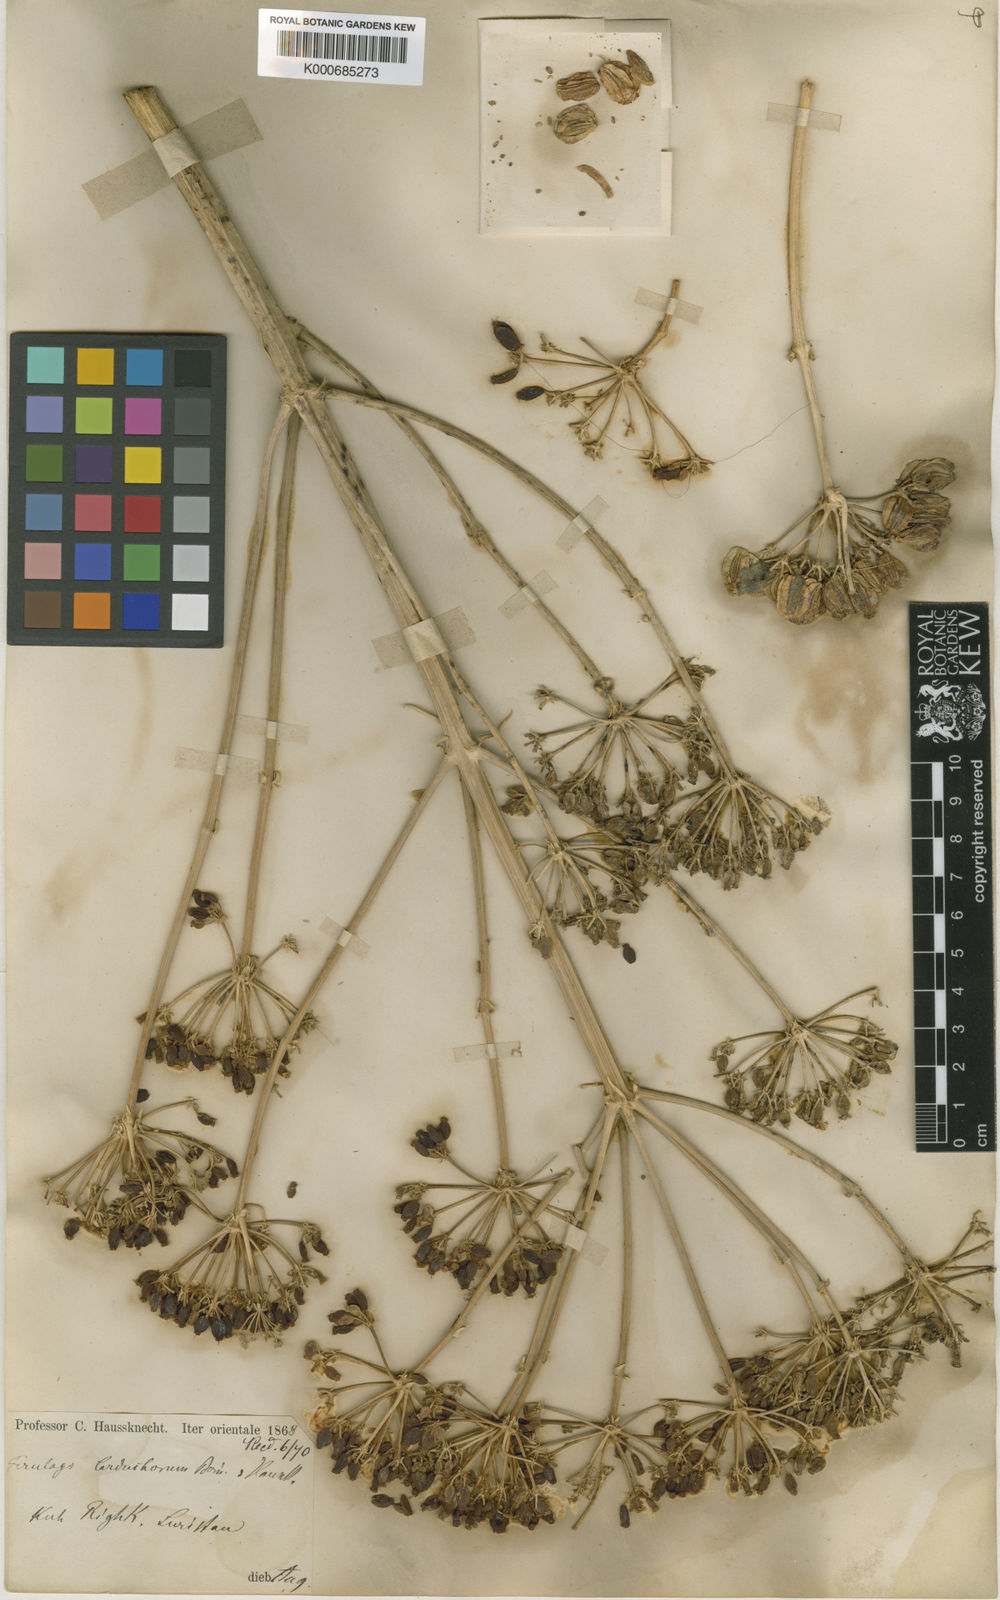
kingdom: Plantae
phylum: Tracheophyta
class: Magnoliopsida
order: Apiales
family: Apiaceae
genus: Ferulago
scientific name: Ferulago carduchorum
